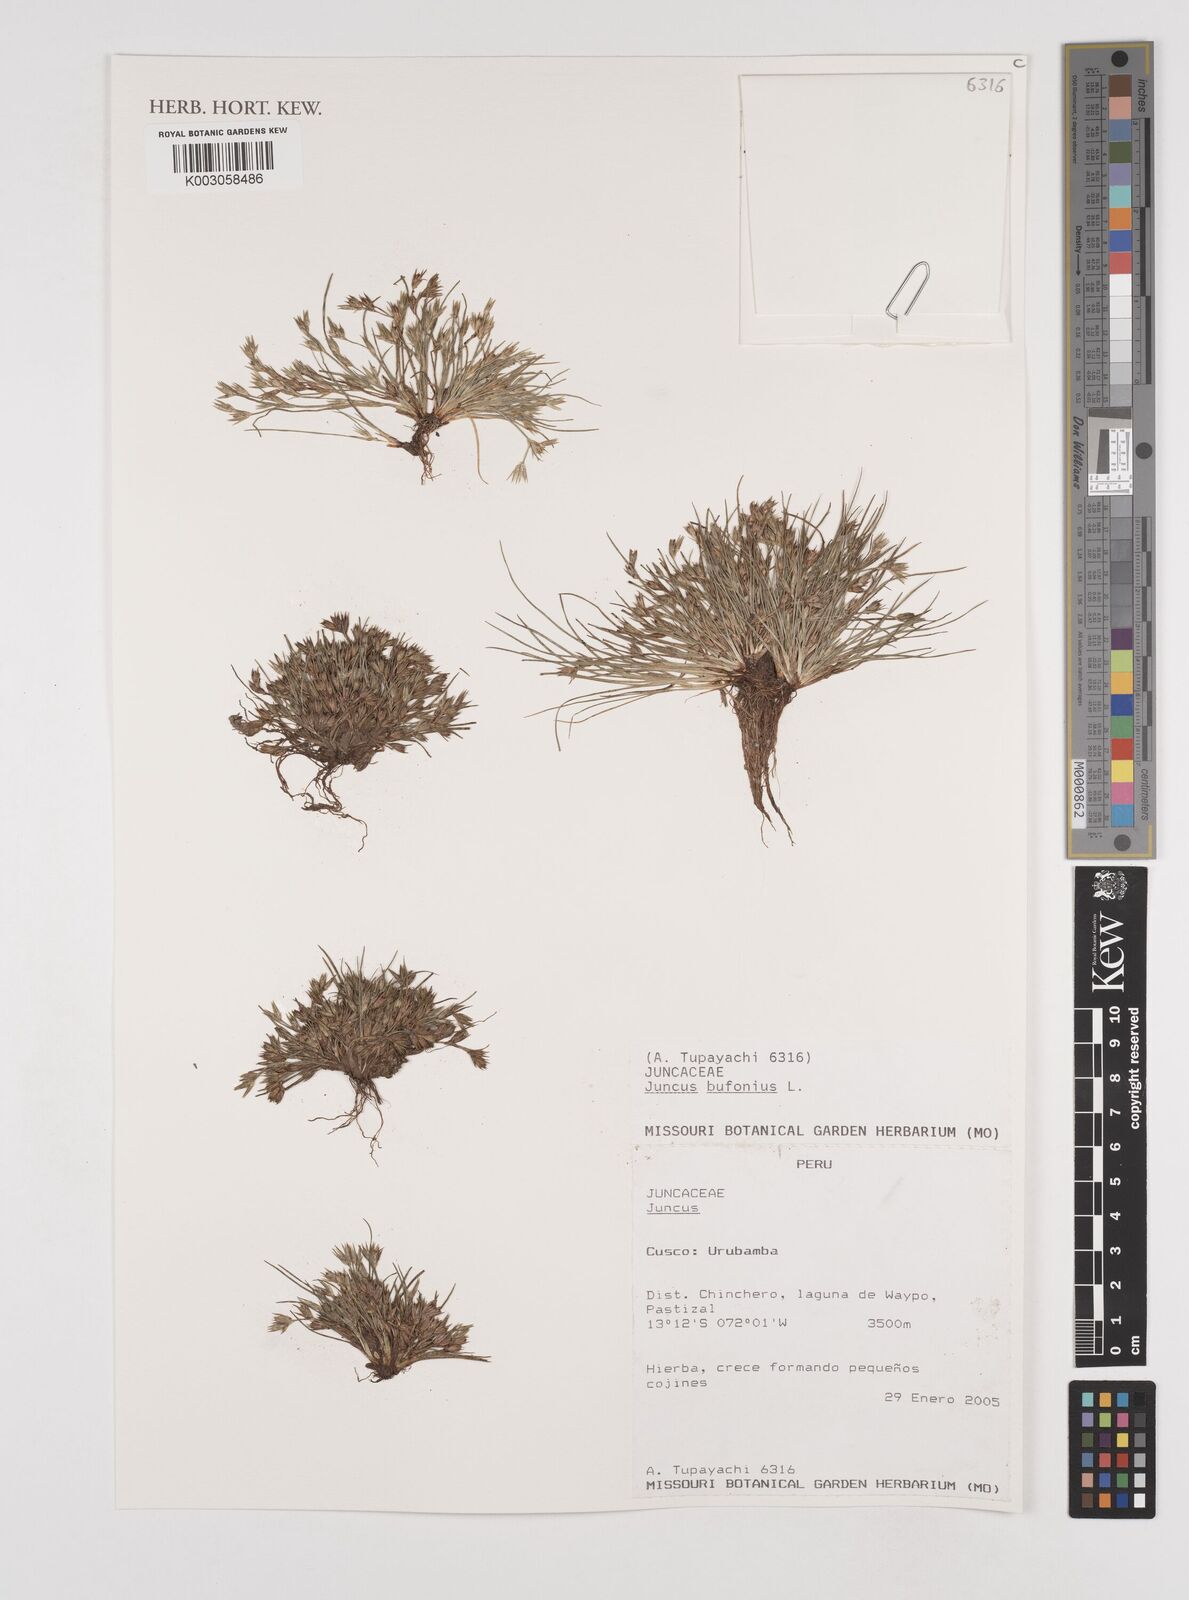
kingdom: Plantae
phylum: Tracheophyta
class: Liliopsida
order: Poales
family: Juncaceae
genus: Juncus
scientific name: Juncus bufonius
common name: Toad rush
